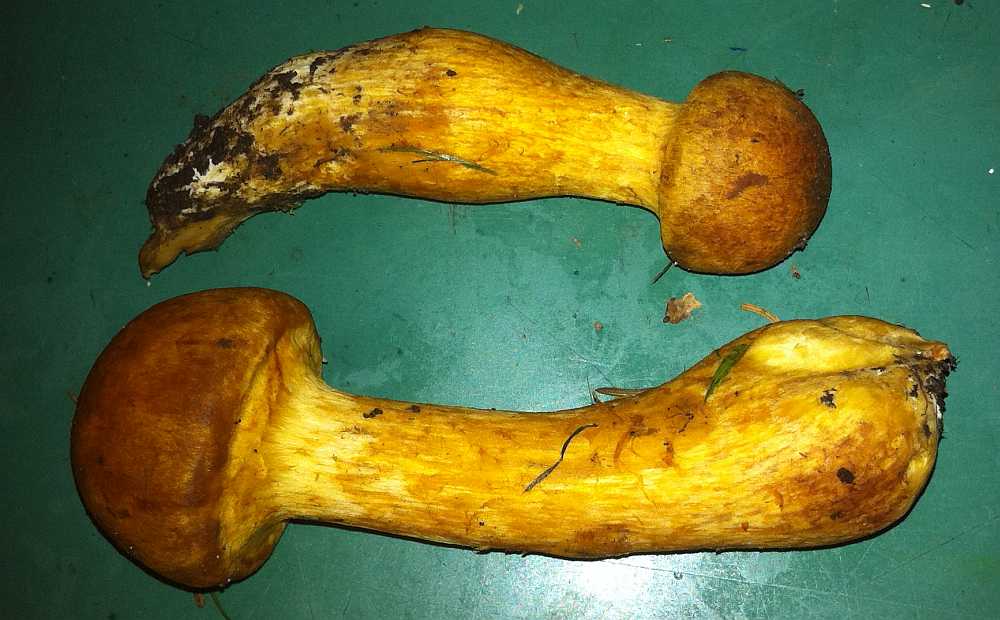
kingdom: Fungi
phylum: Basidiomycota
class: Agaricomycetes
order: Agaricales
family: Hymenogastraceae
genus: Gymnopilus
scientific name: Gymnopilus spectabilis
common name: fibret flammehat
